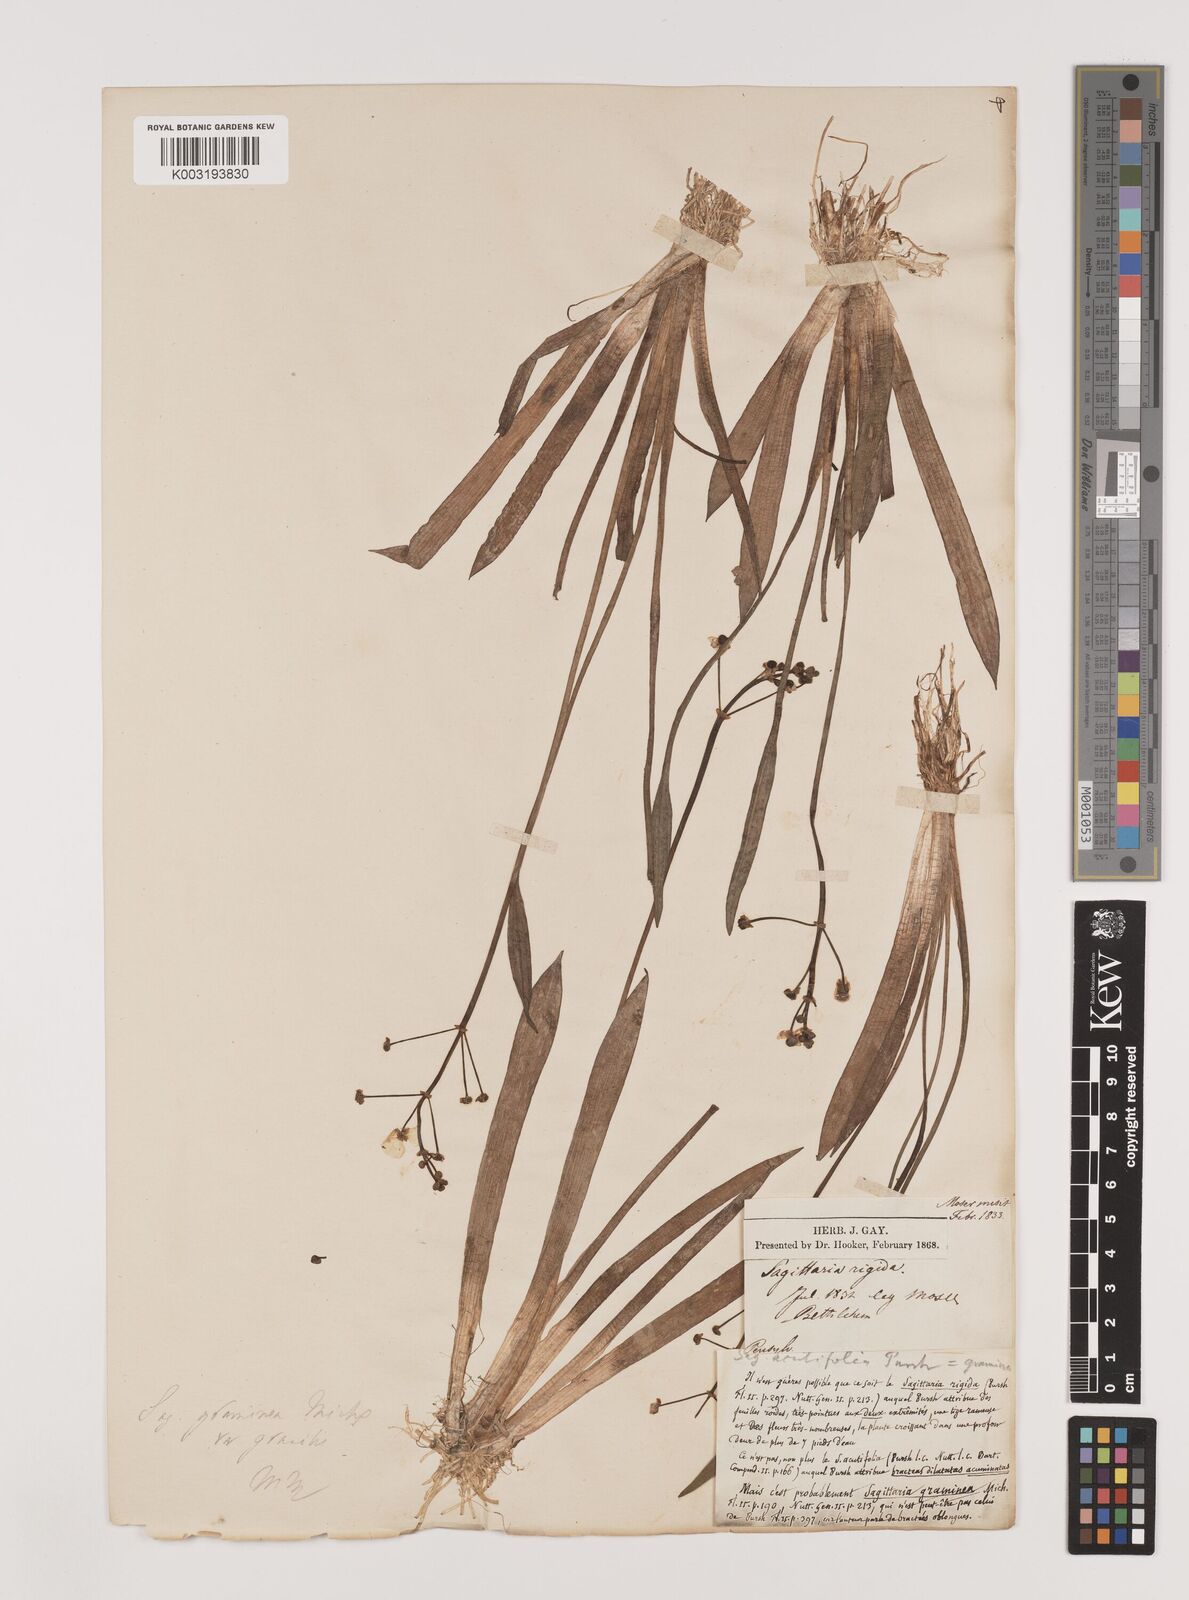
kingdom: Plantae
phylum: Tracheophyta
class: Liliopsida
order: Alismatales
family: Alismataceae
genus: Sagittaria
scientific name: Sagittaria graminea
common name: Grass-leaved arrowhead
